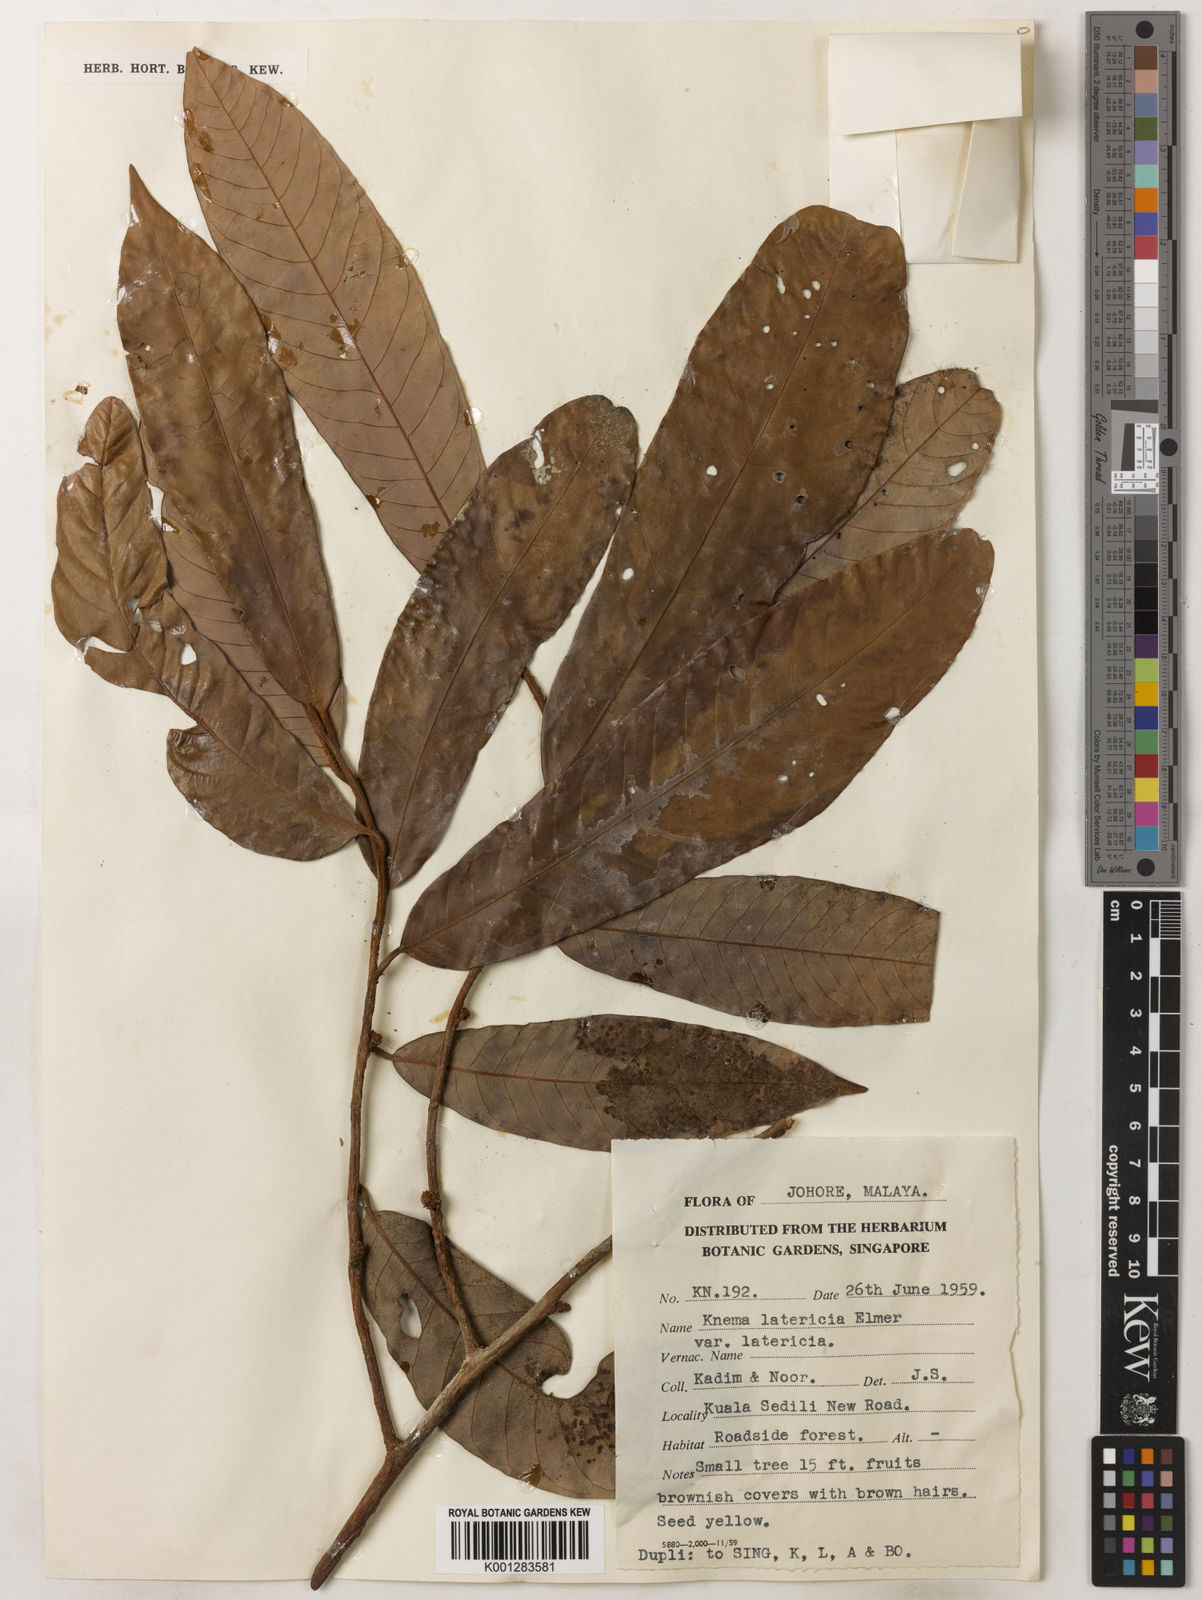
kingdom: Plantae
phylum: Tracheophyta
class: Magnoliopsida
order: Magnoliales
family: Myristicaceae
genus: Knema
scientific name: Knema latericia
